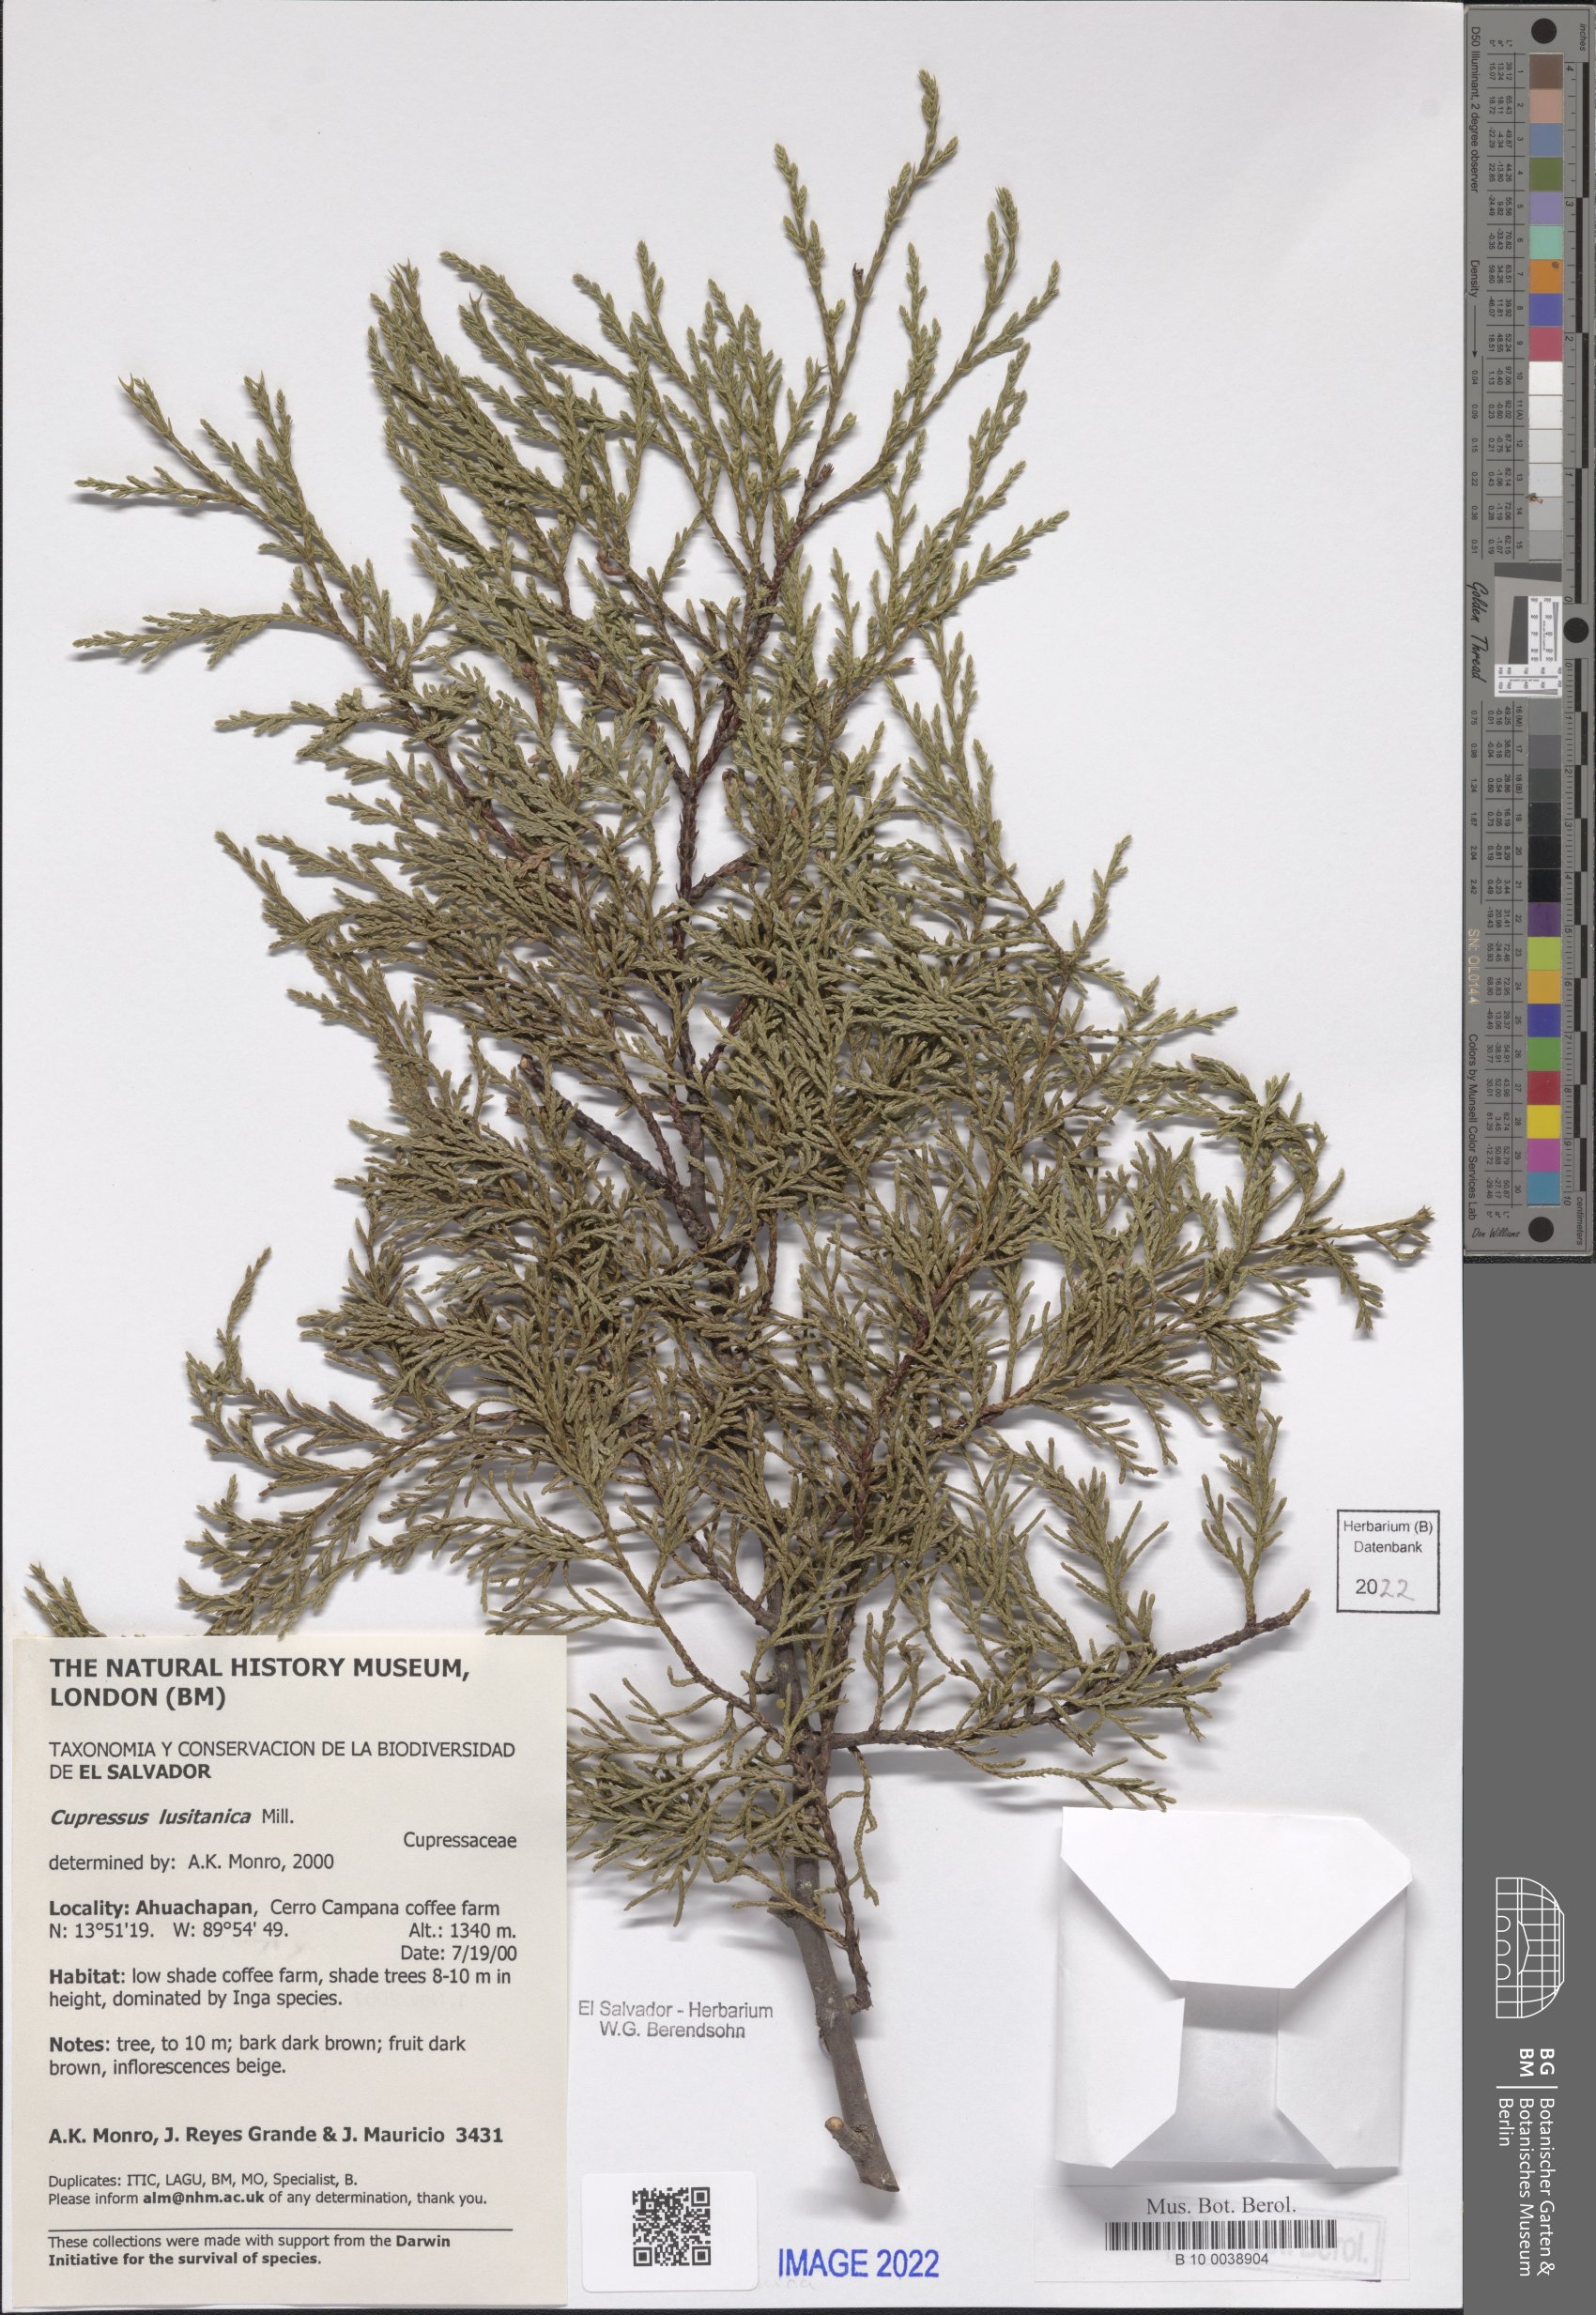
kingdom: Plantae
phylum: Tracheophyta
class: Pinopsida
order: Pinales
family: Cupressaceae
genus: Cupressus
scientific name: Cupressus lusitanica
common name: Mexican cypress
